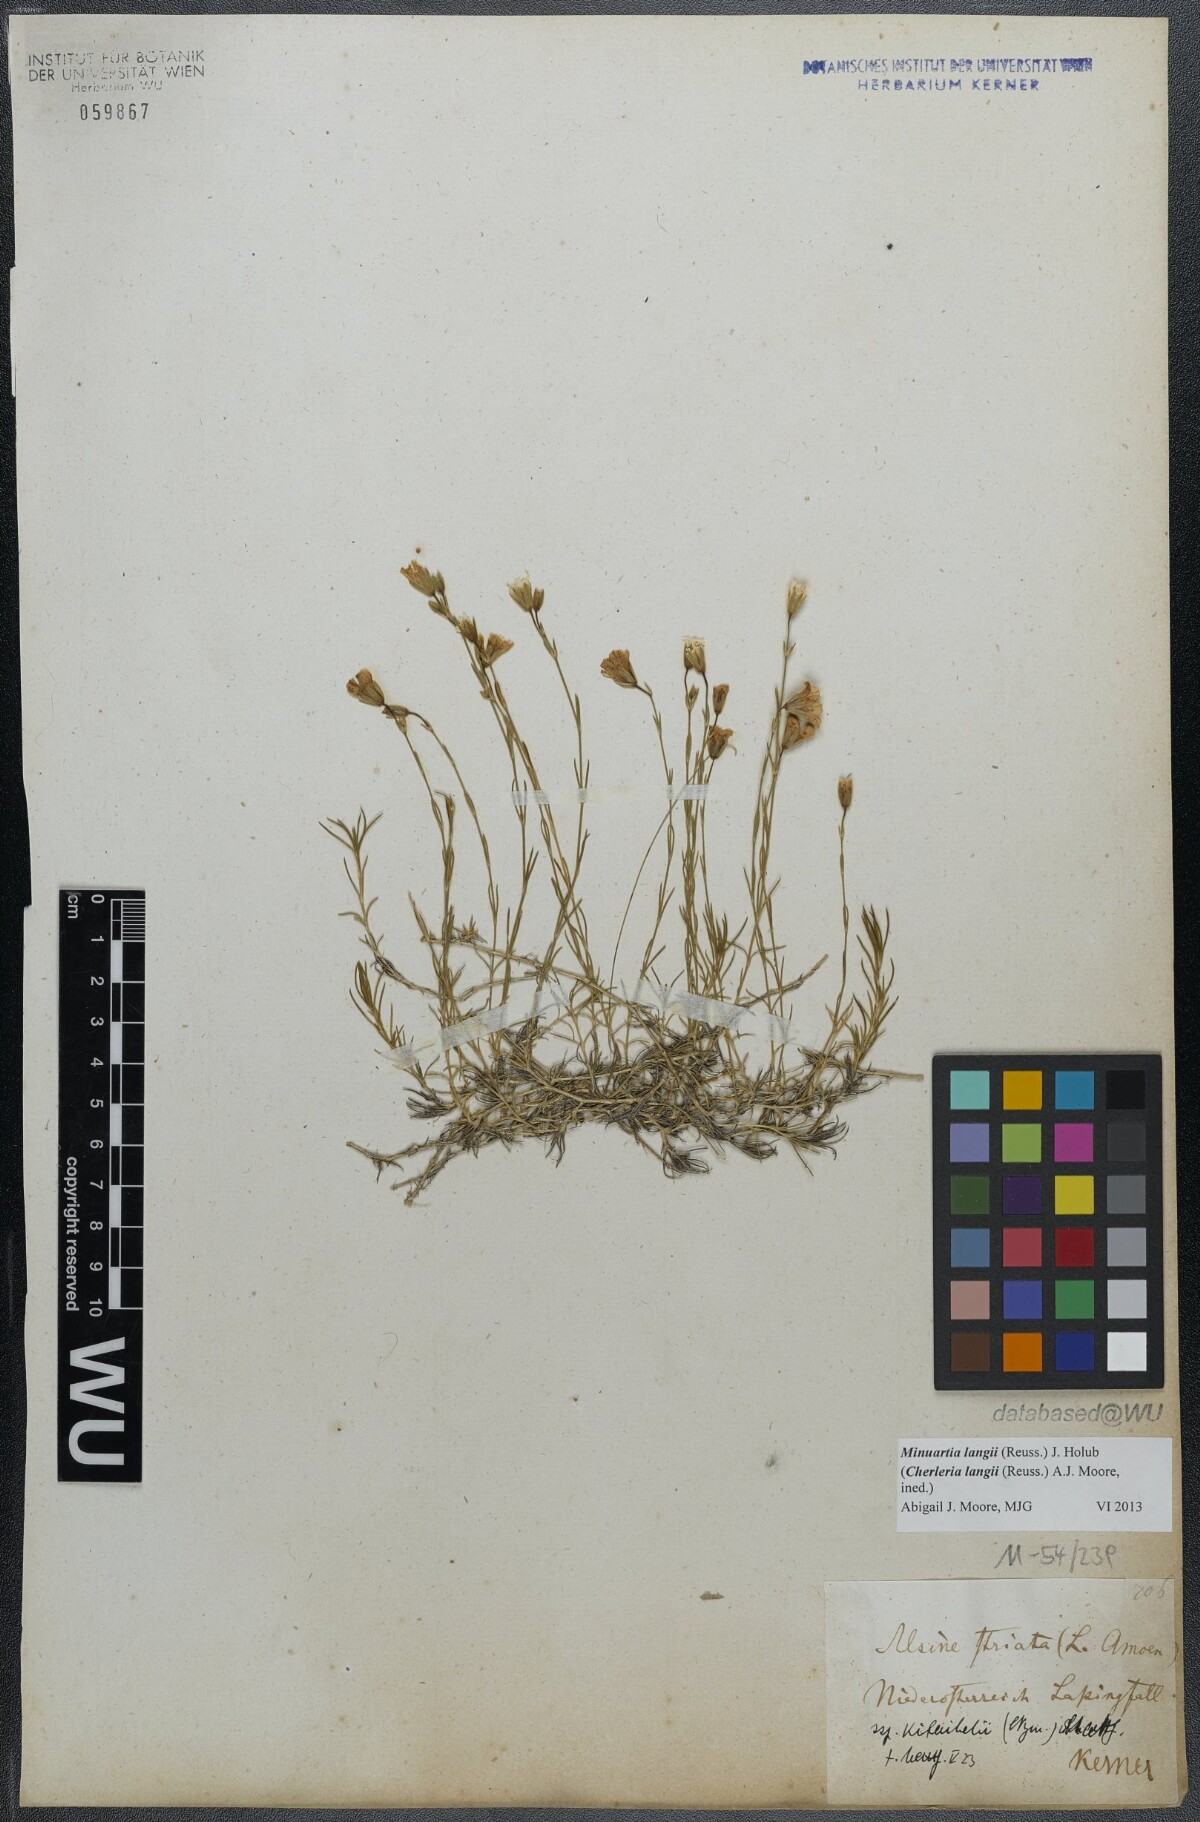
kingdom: Plantae
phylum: Tracheophyta
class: Magnoliopsida
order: Caryophyllales
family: Caryophyllaceae
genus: Cherleria
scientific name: Cherleria langii
